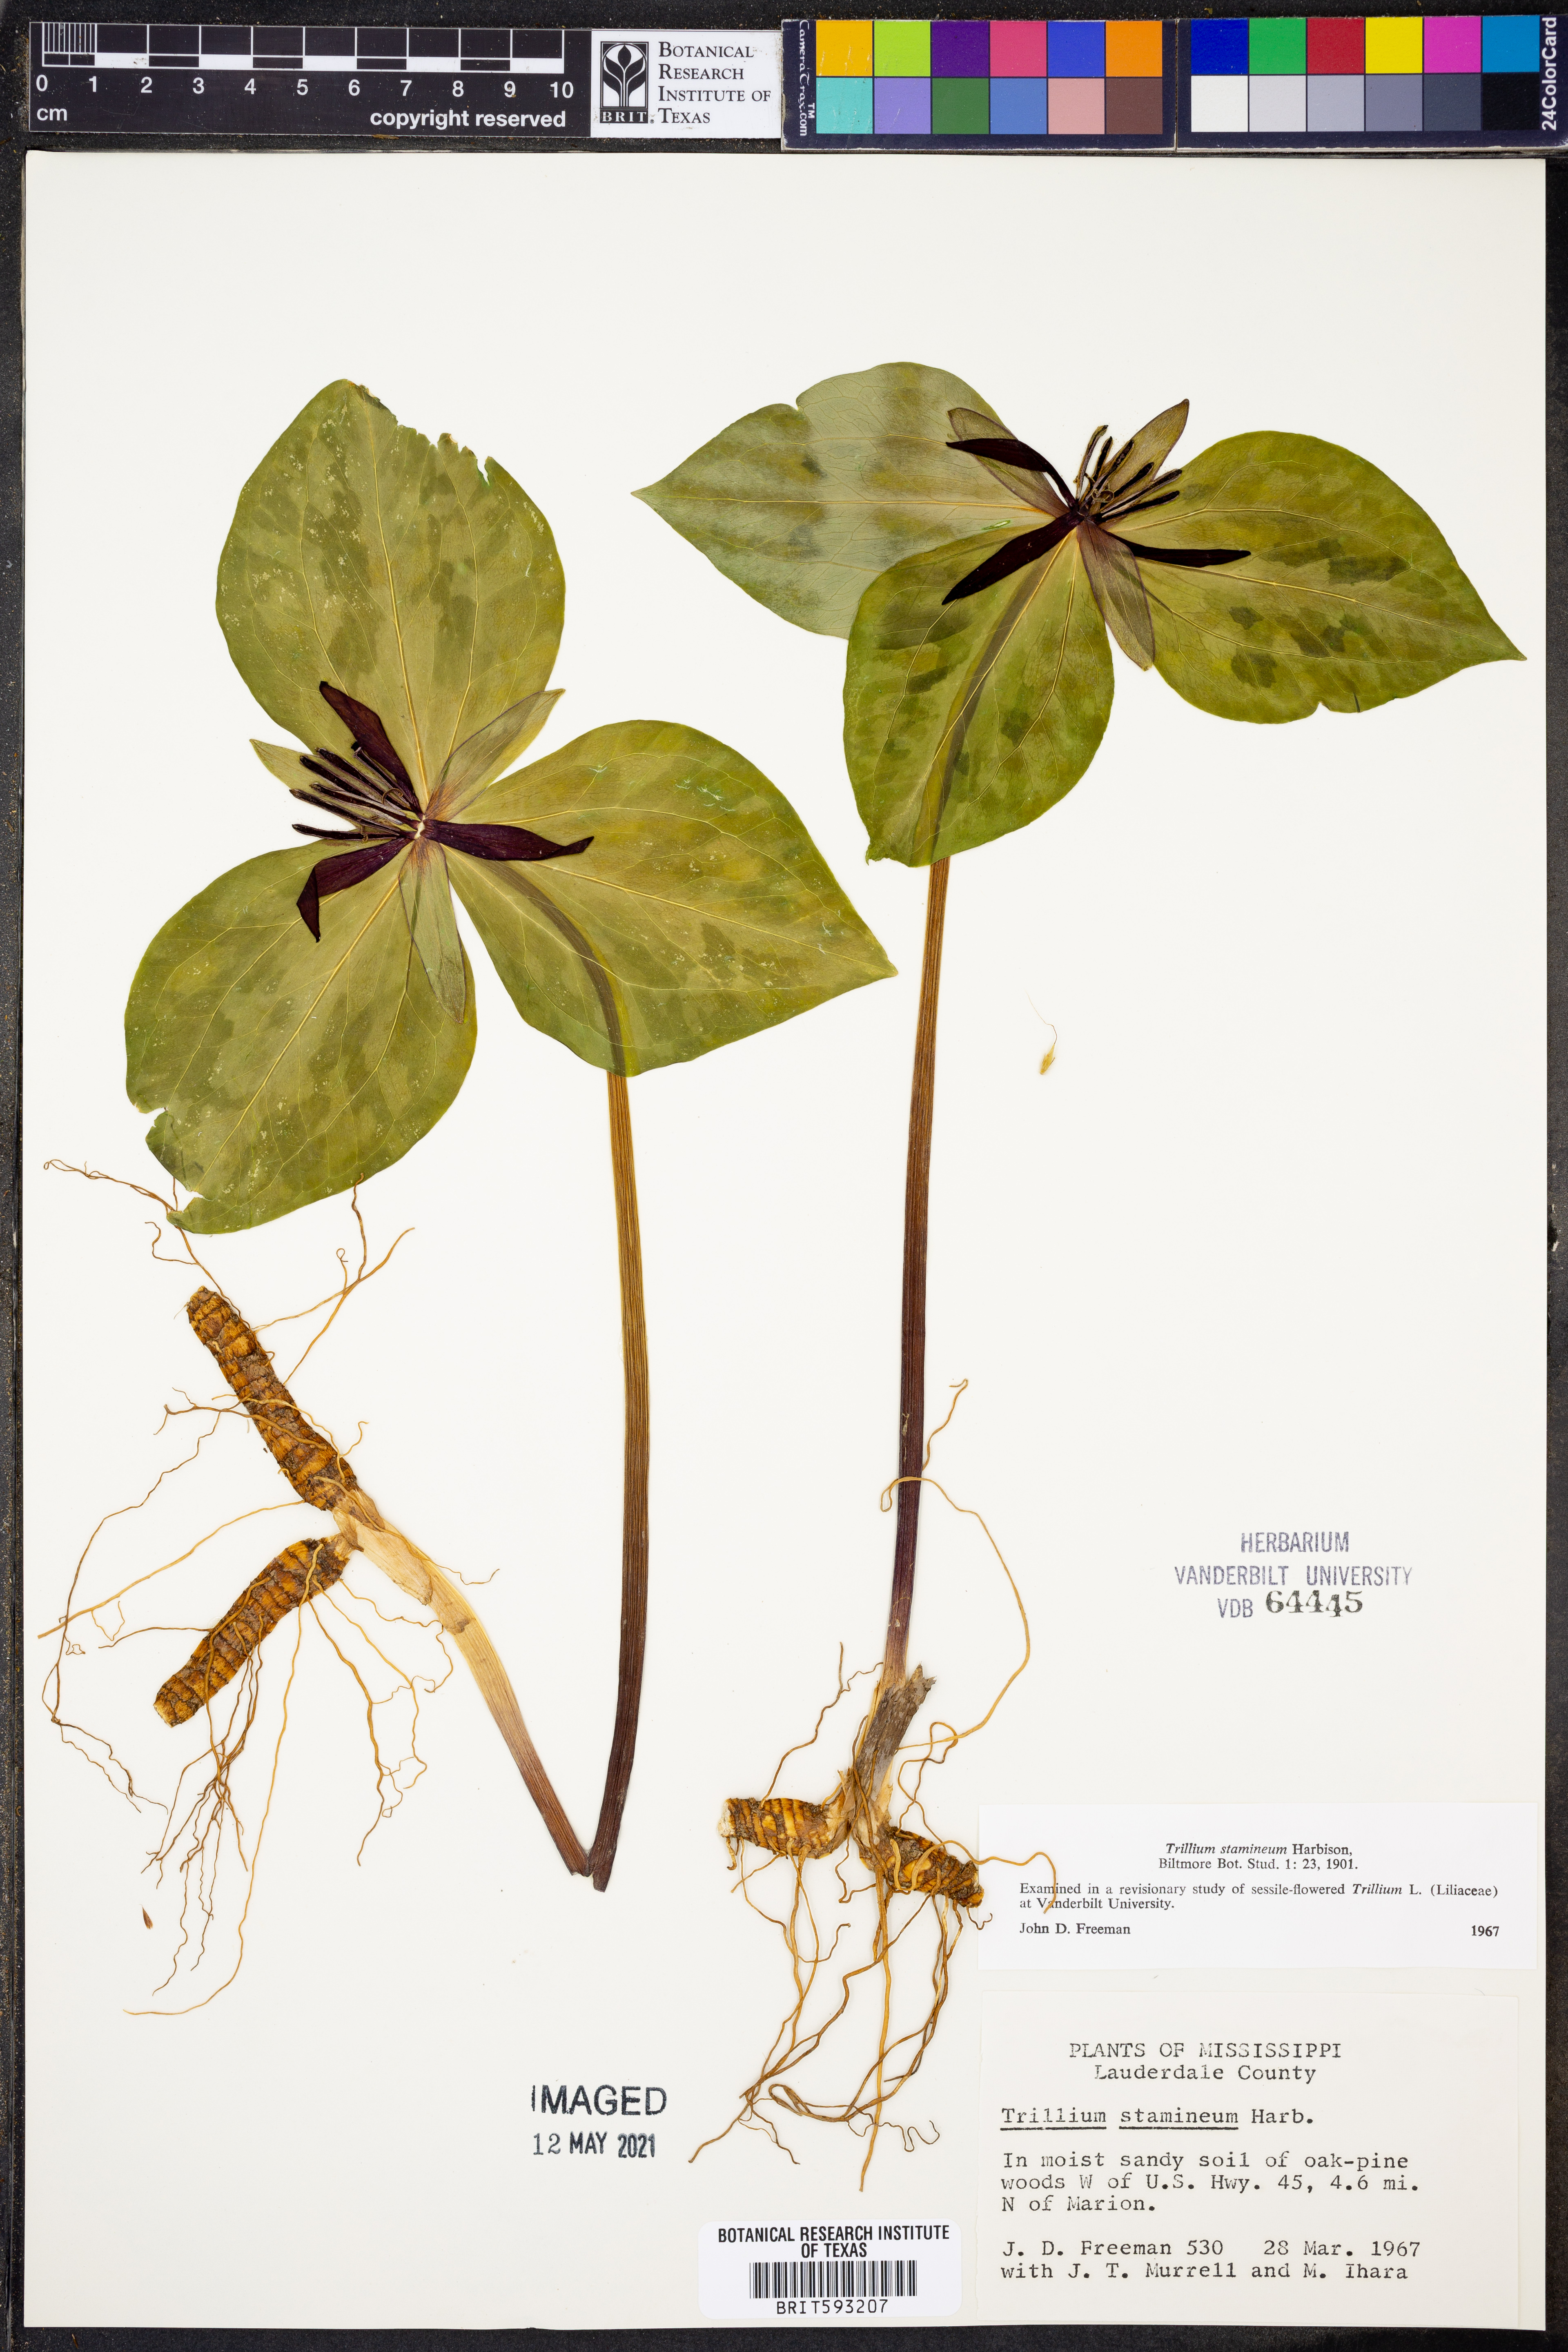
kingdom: Plantae
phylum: Tracheophyta
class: Liliopsida
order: Liliales
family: Melanthiaceae
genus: Trillium
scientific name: Trillium stamineum
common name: Blue ridge wakerobin
